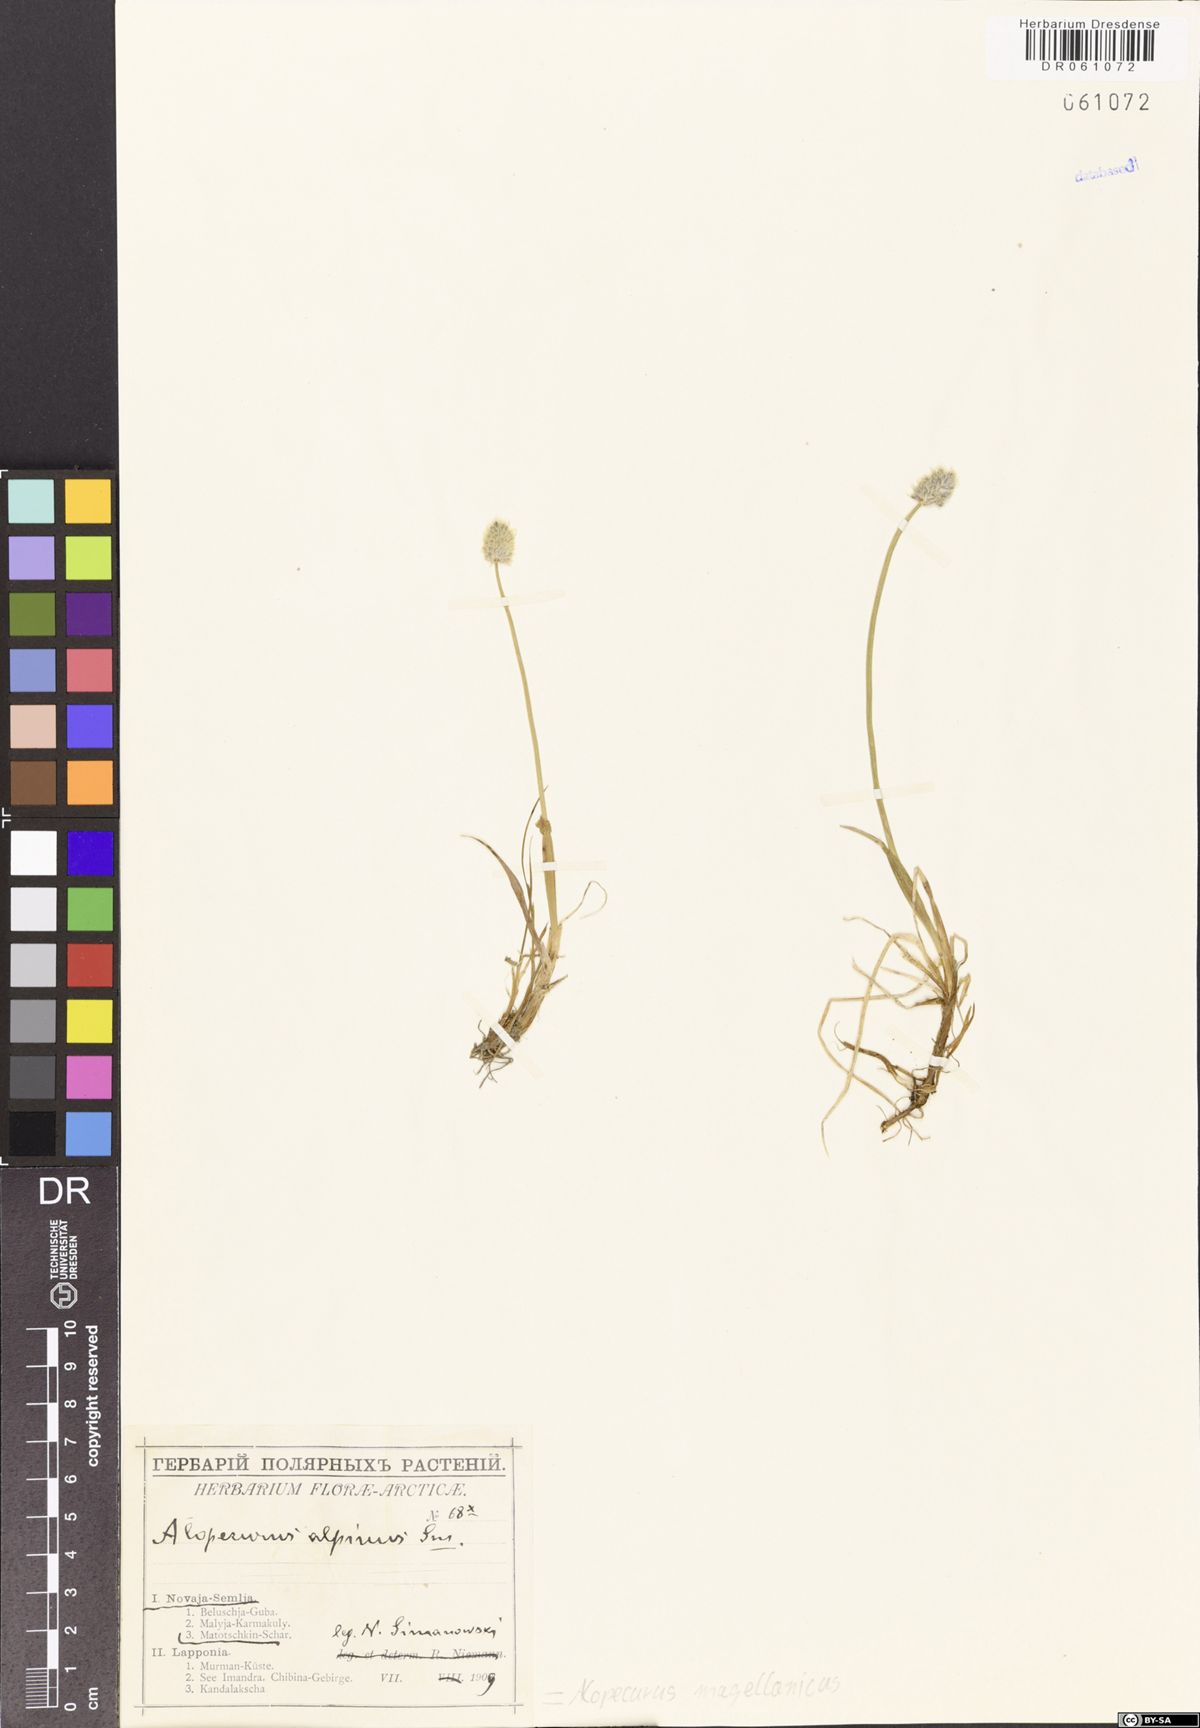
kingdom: Plantae
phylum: Tracheophyta
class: Liliopsida
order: Poales
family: Poaceae
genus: Alopecurus
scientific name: Alopecurus magellanicus
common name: Alpine foxtail
